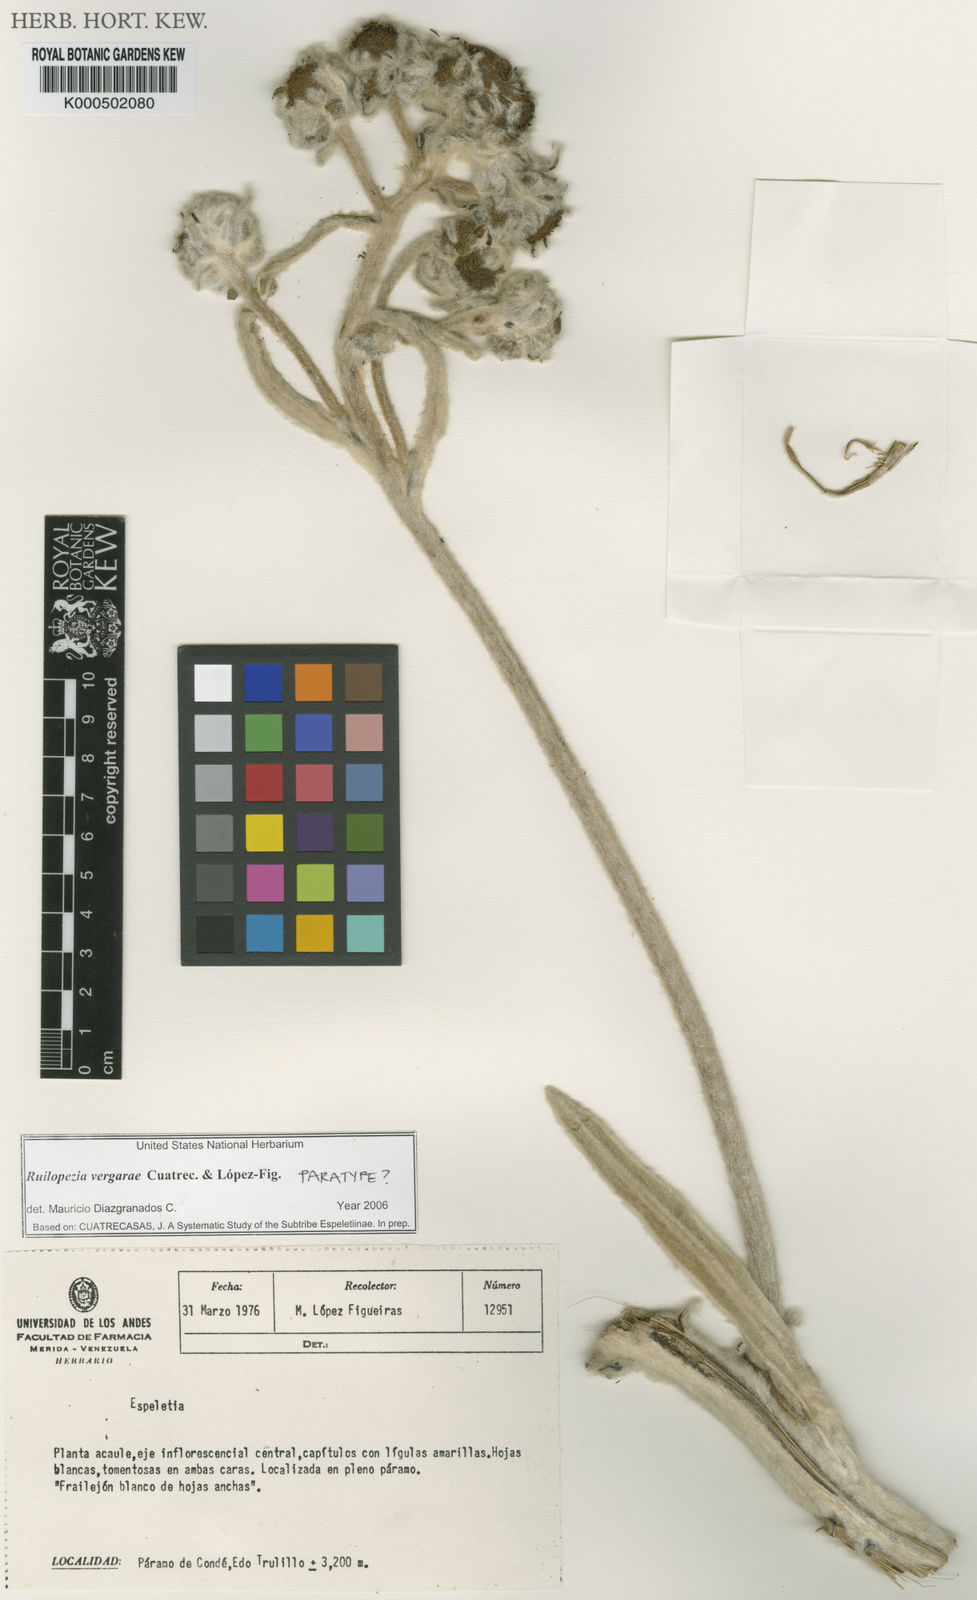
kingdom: Plantae
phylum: Tracheophyta
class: Magnoliopsida
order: Asterales
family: Asteraceae
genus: Espeletia
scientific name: Espeletia
